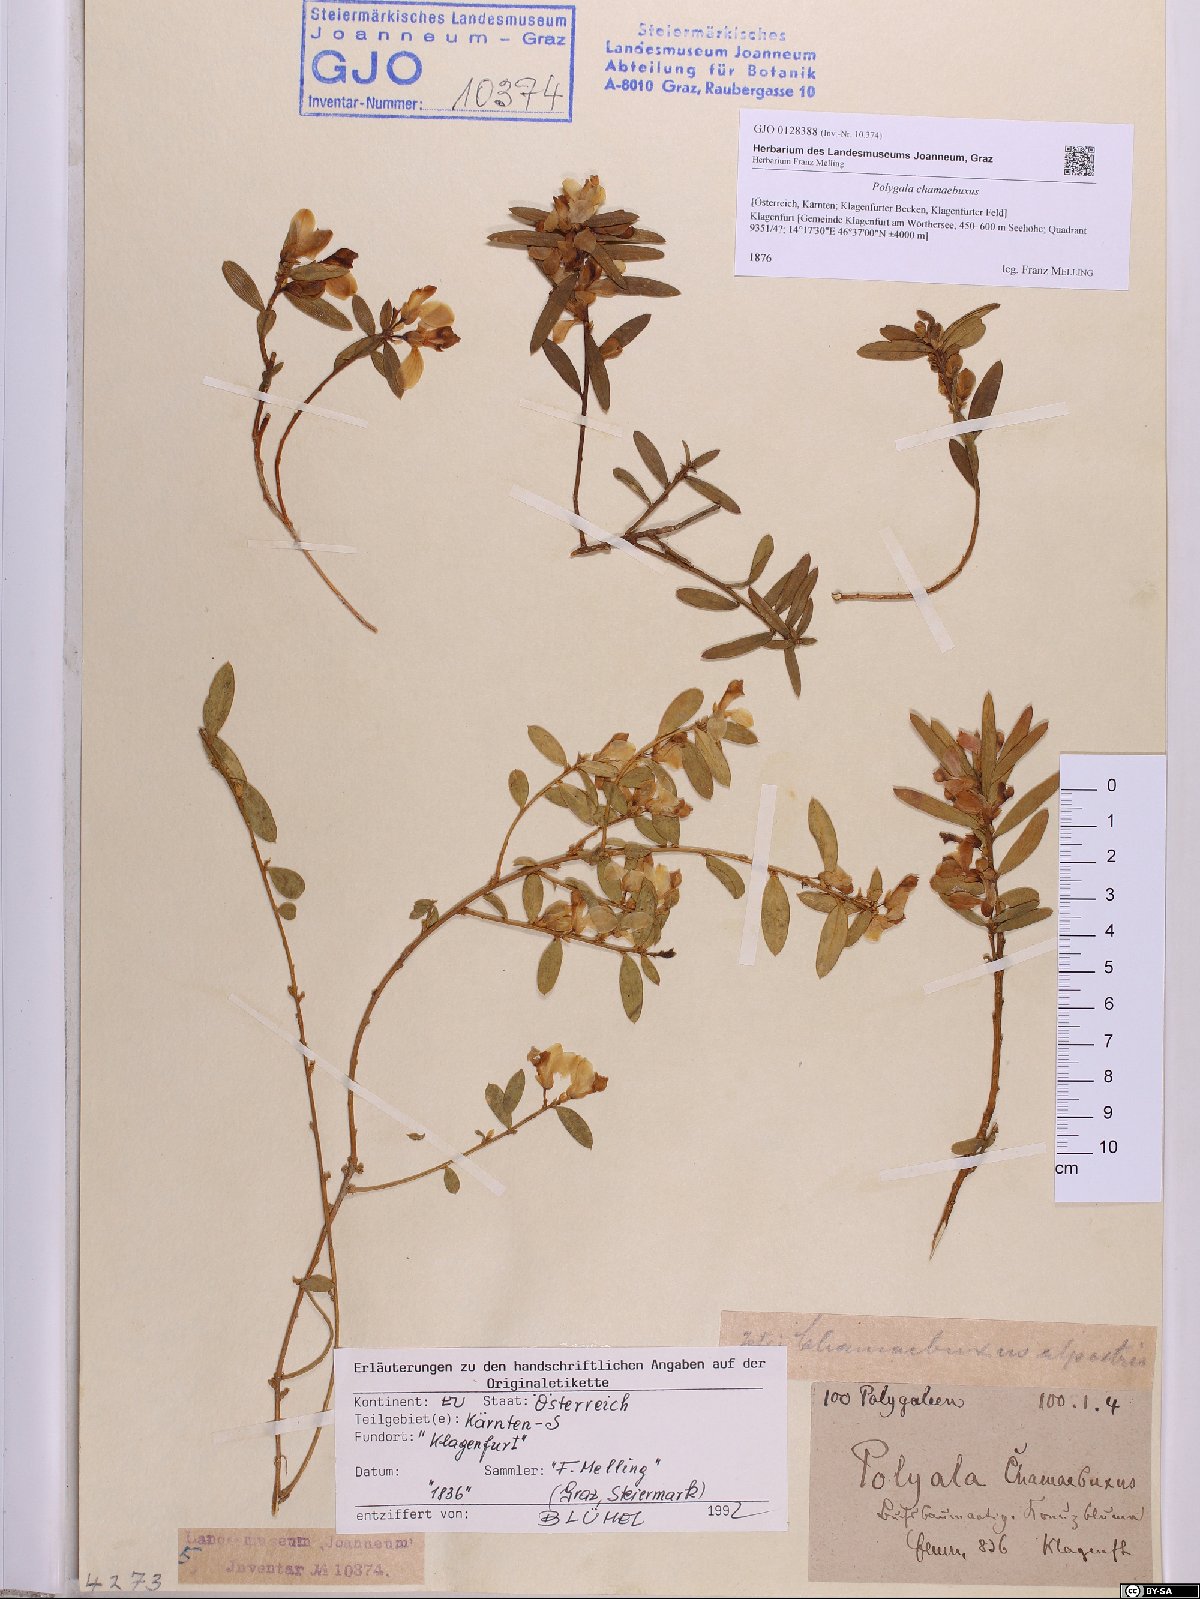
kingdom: Plantae
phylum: Tracheophyta
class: Magnoliopsida
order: Fabales
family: Polygalaceae
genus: Polygaloides
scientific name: Polygaloides chamaebuxus
